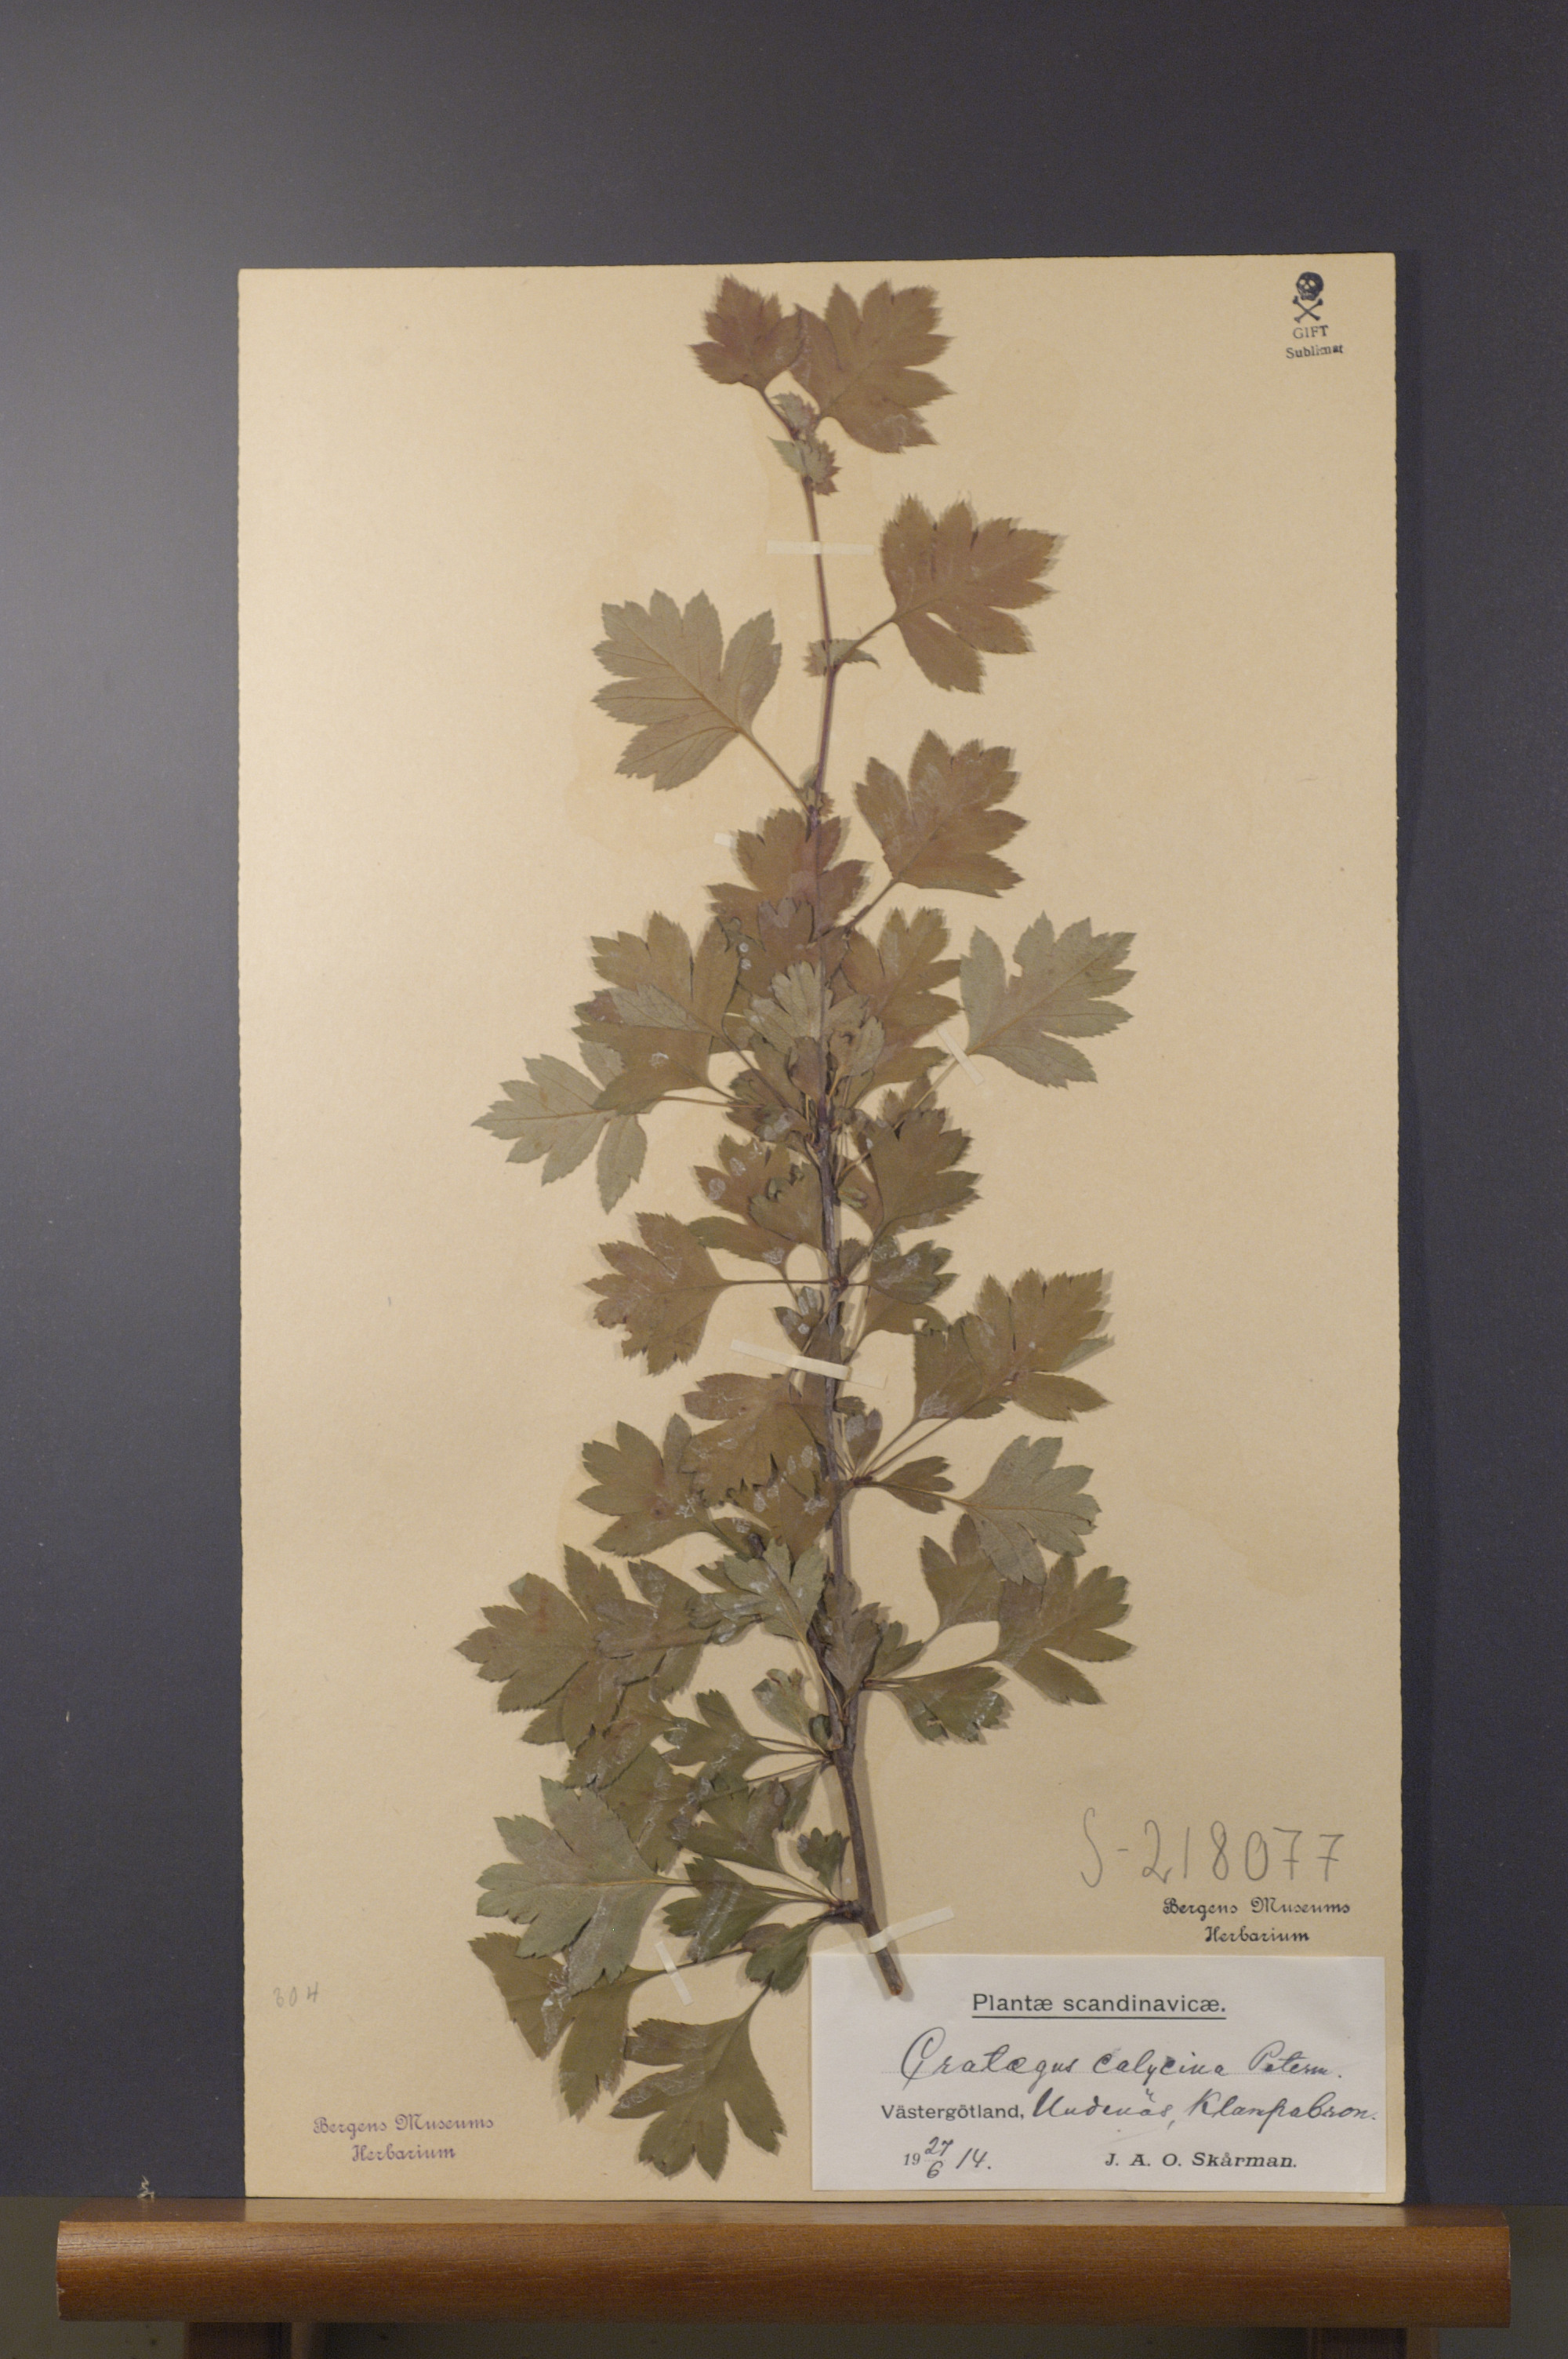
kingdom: Plantae
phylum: Tracheophyta
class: Magnoliopsida
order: Rosales
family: Rosaceae
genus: Crataegus
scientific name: Crataegus rhipidophylla
